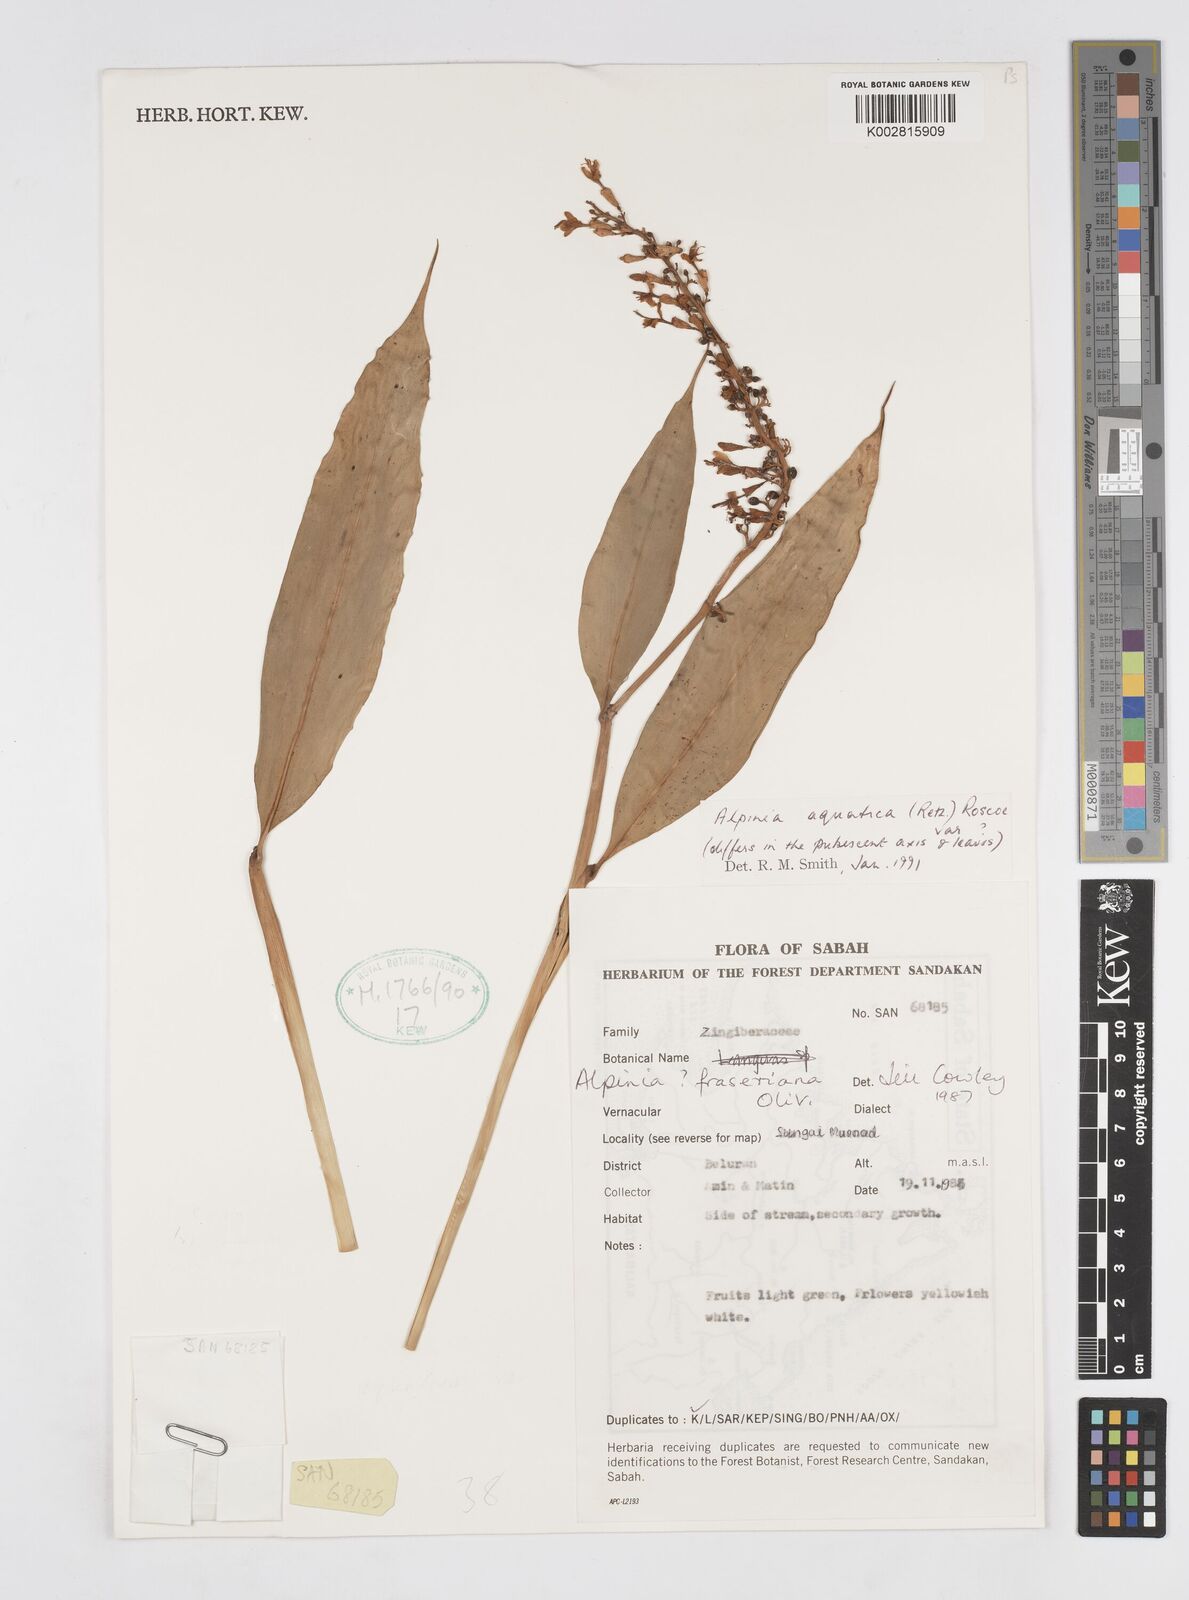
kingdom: Plantae
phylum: Tracheophyta
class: Liliopsida
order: Zingiberales
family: Zingiberaceae
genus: Alpinia
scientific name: Alpinia aquatica
